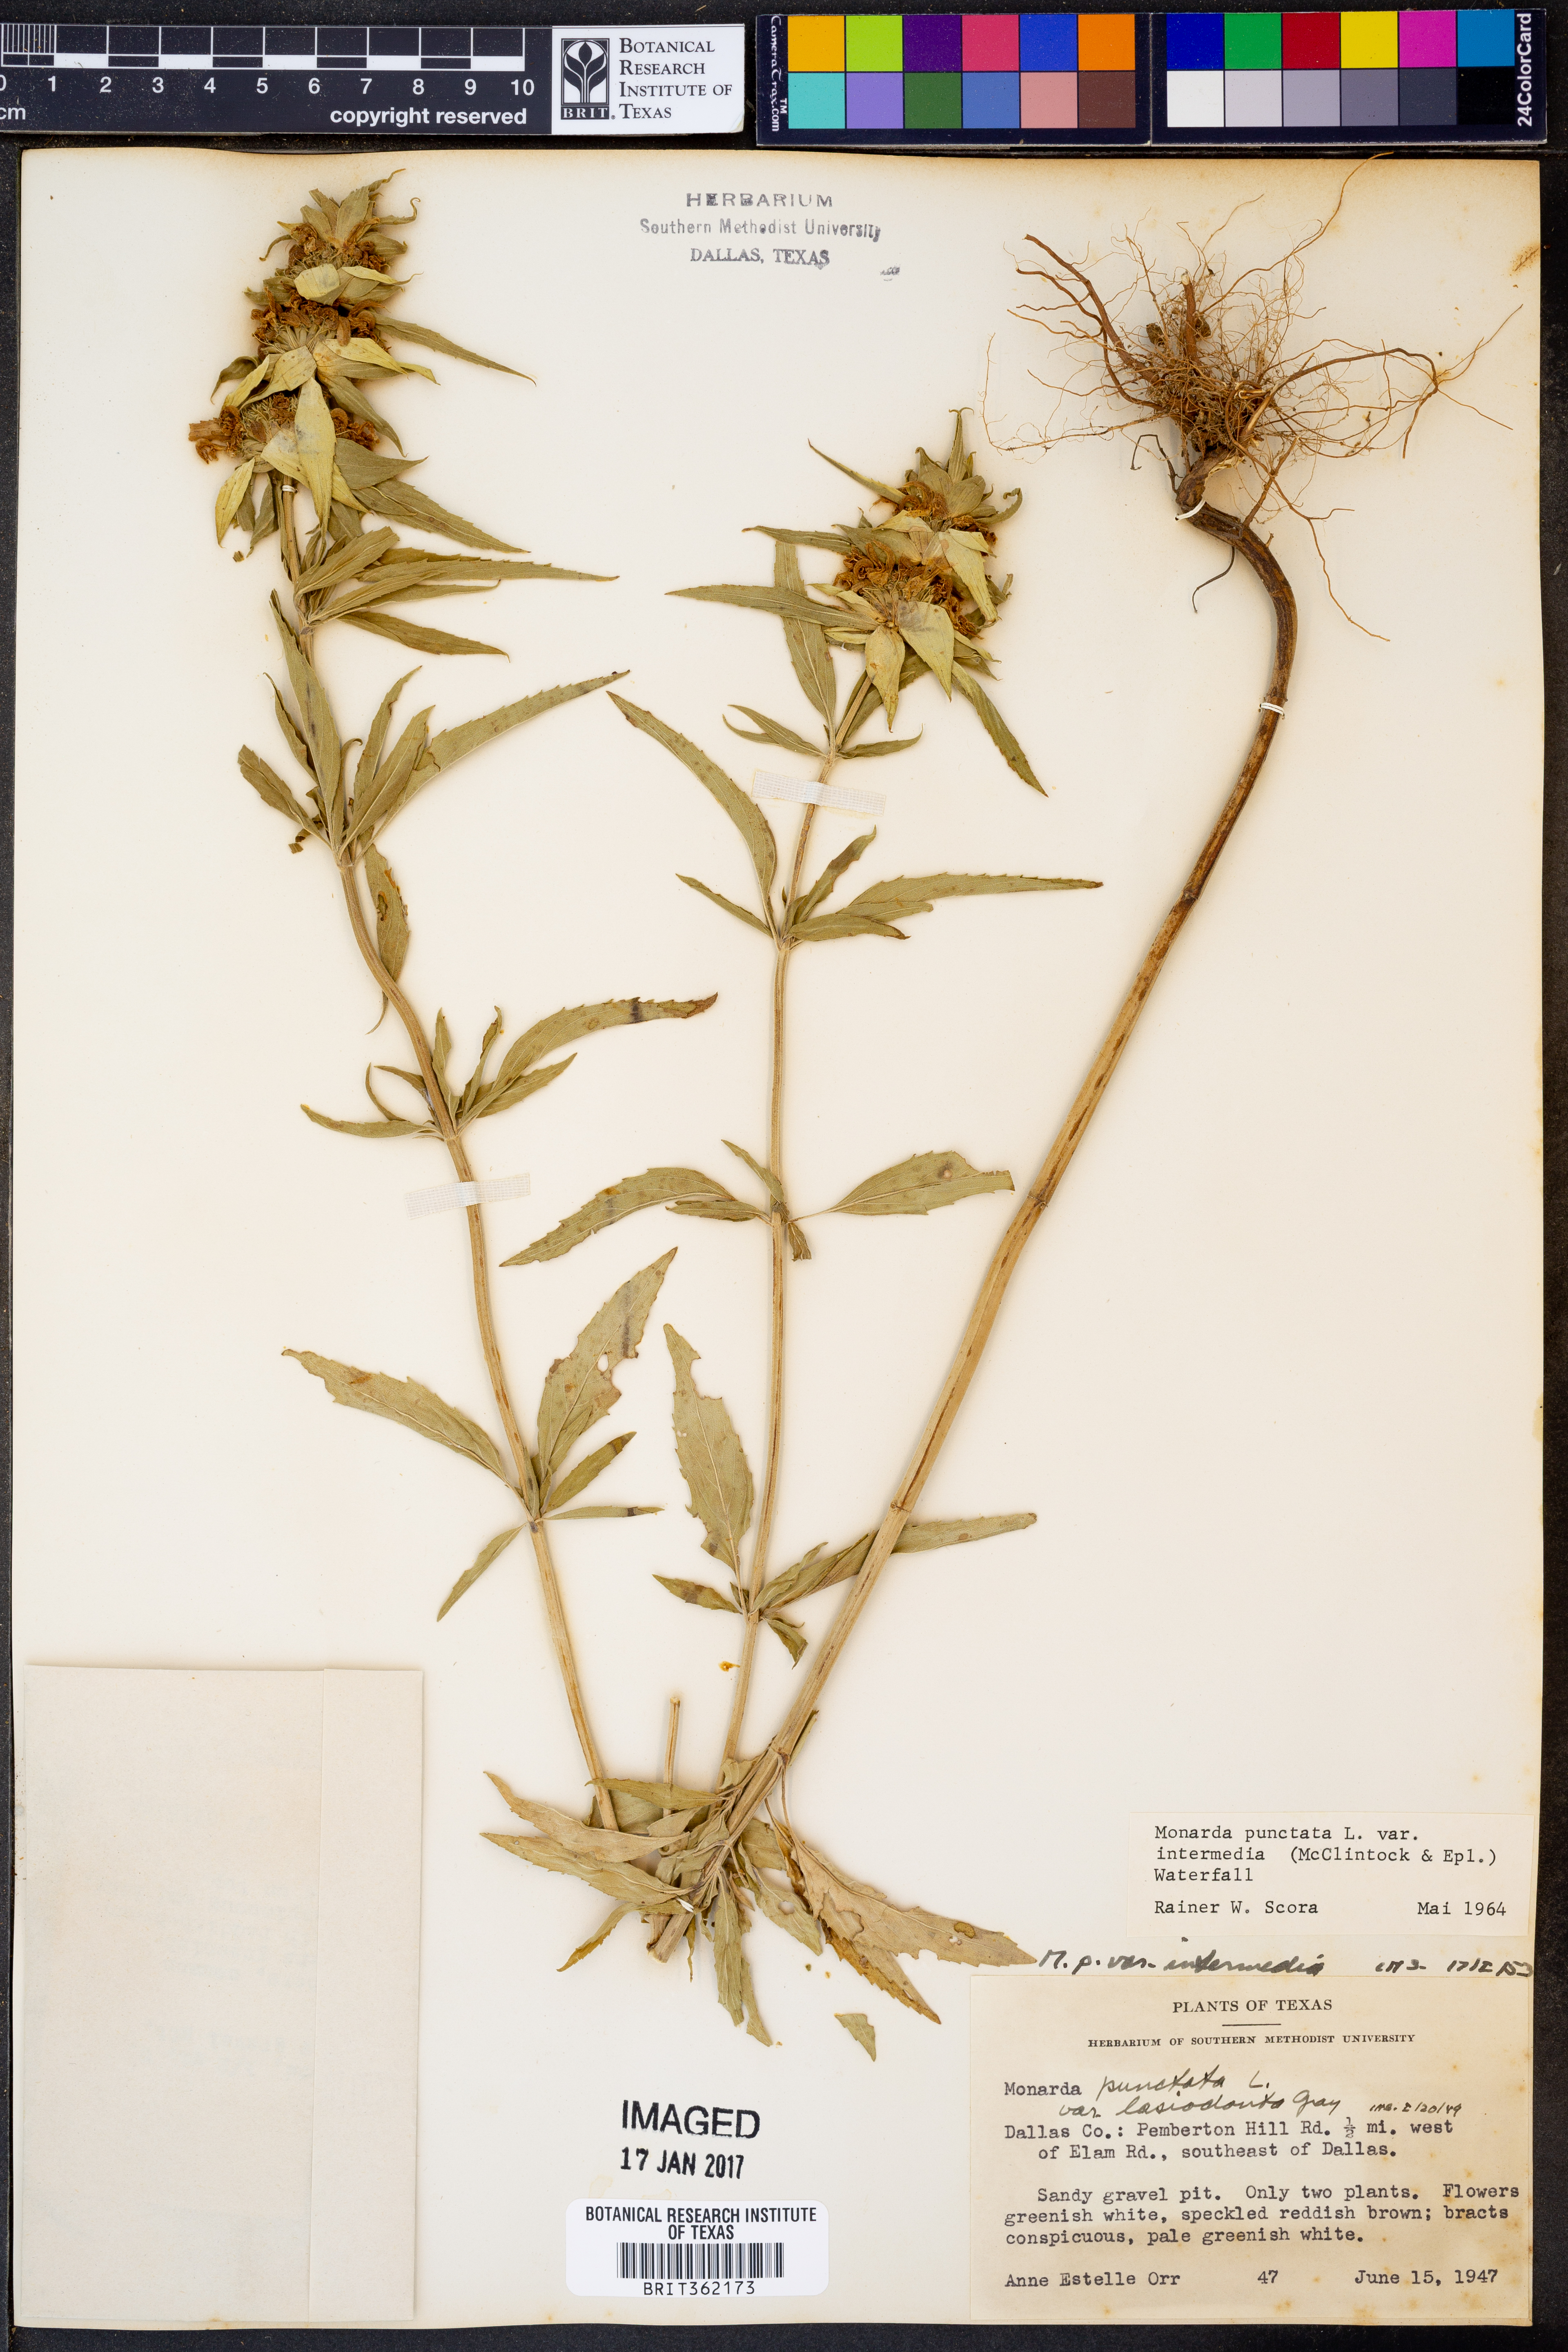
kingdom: Plantae
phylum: Tracheophyta
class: Magnoliopsida
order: Lamiales
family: Lamiaceae
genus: Monarda
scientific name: Monarda punctata
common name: Dotted monarda
